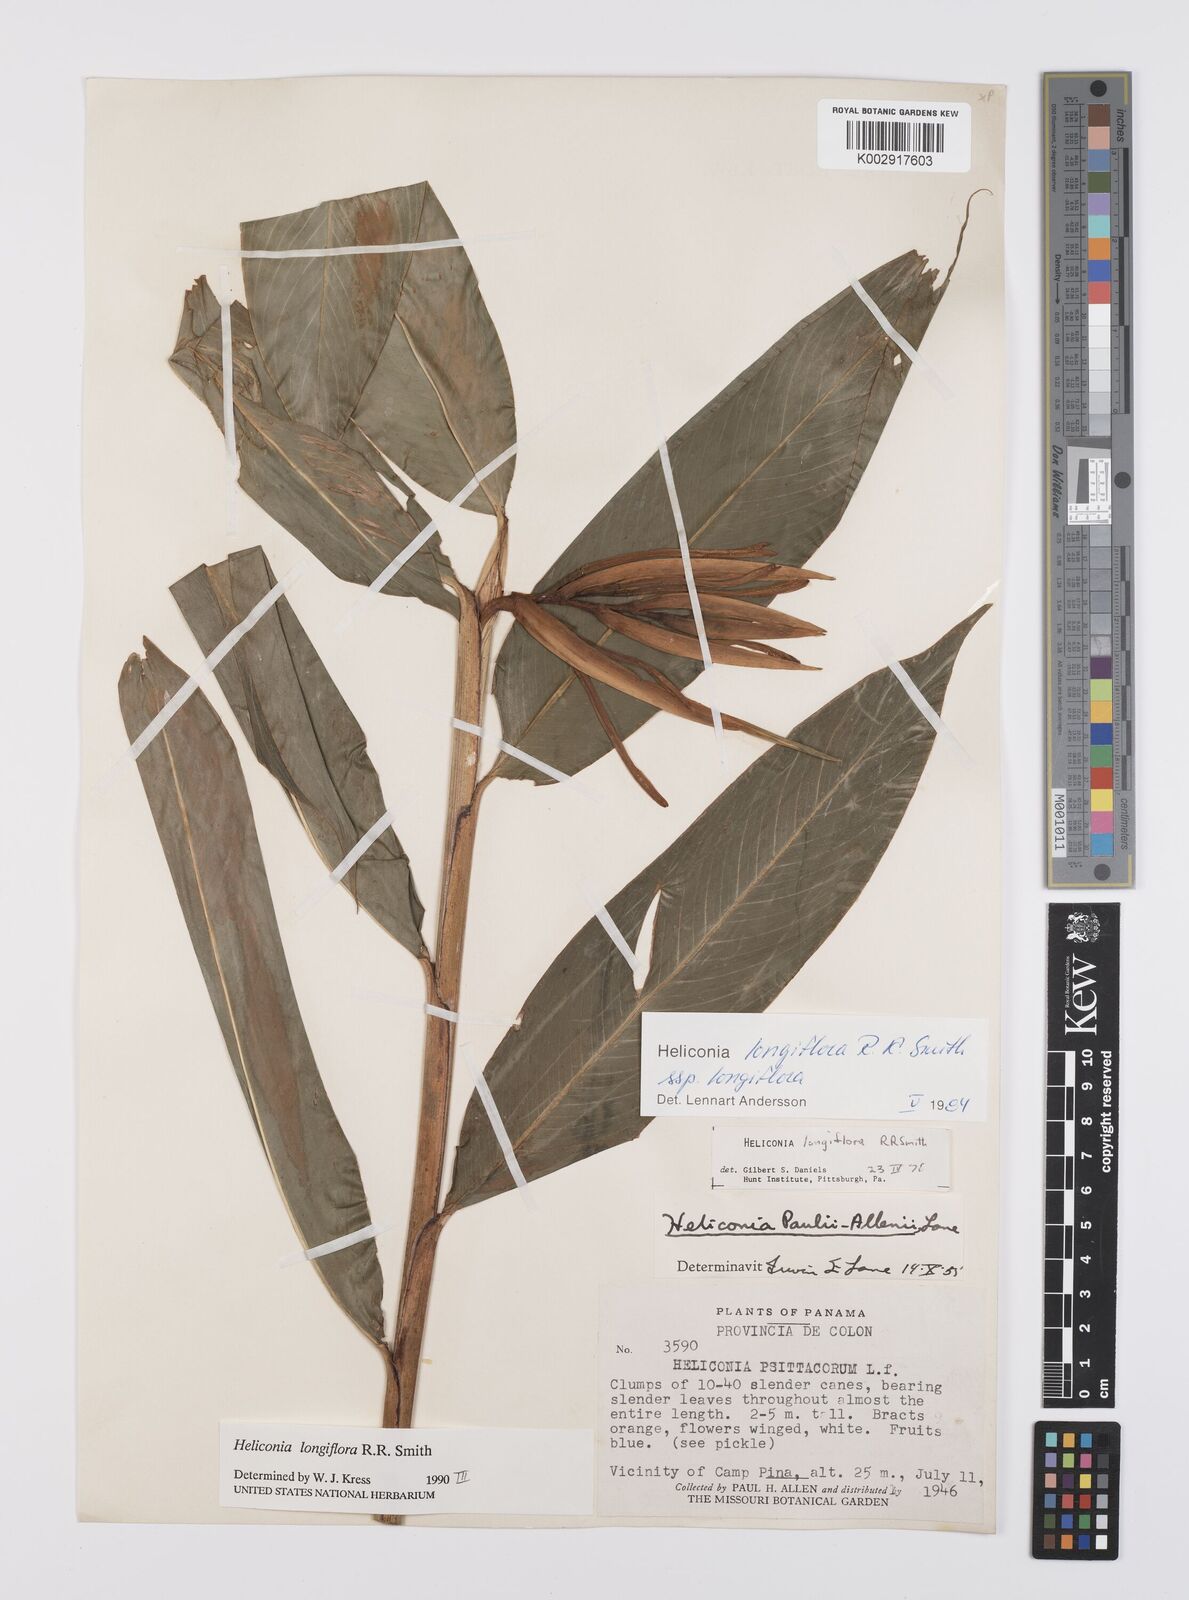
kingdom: Plantae
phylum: Tracheophyta
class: Liliopsida
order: Zingiberales
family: Heliconiaceae
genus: Heliconia
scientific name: Heliconia longiflora
